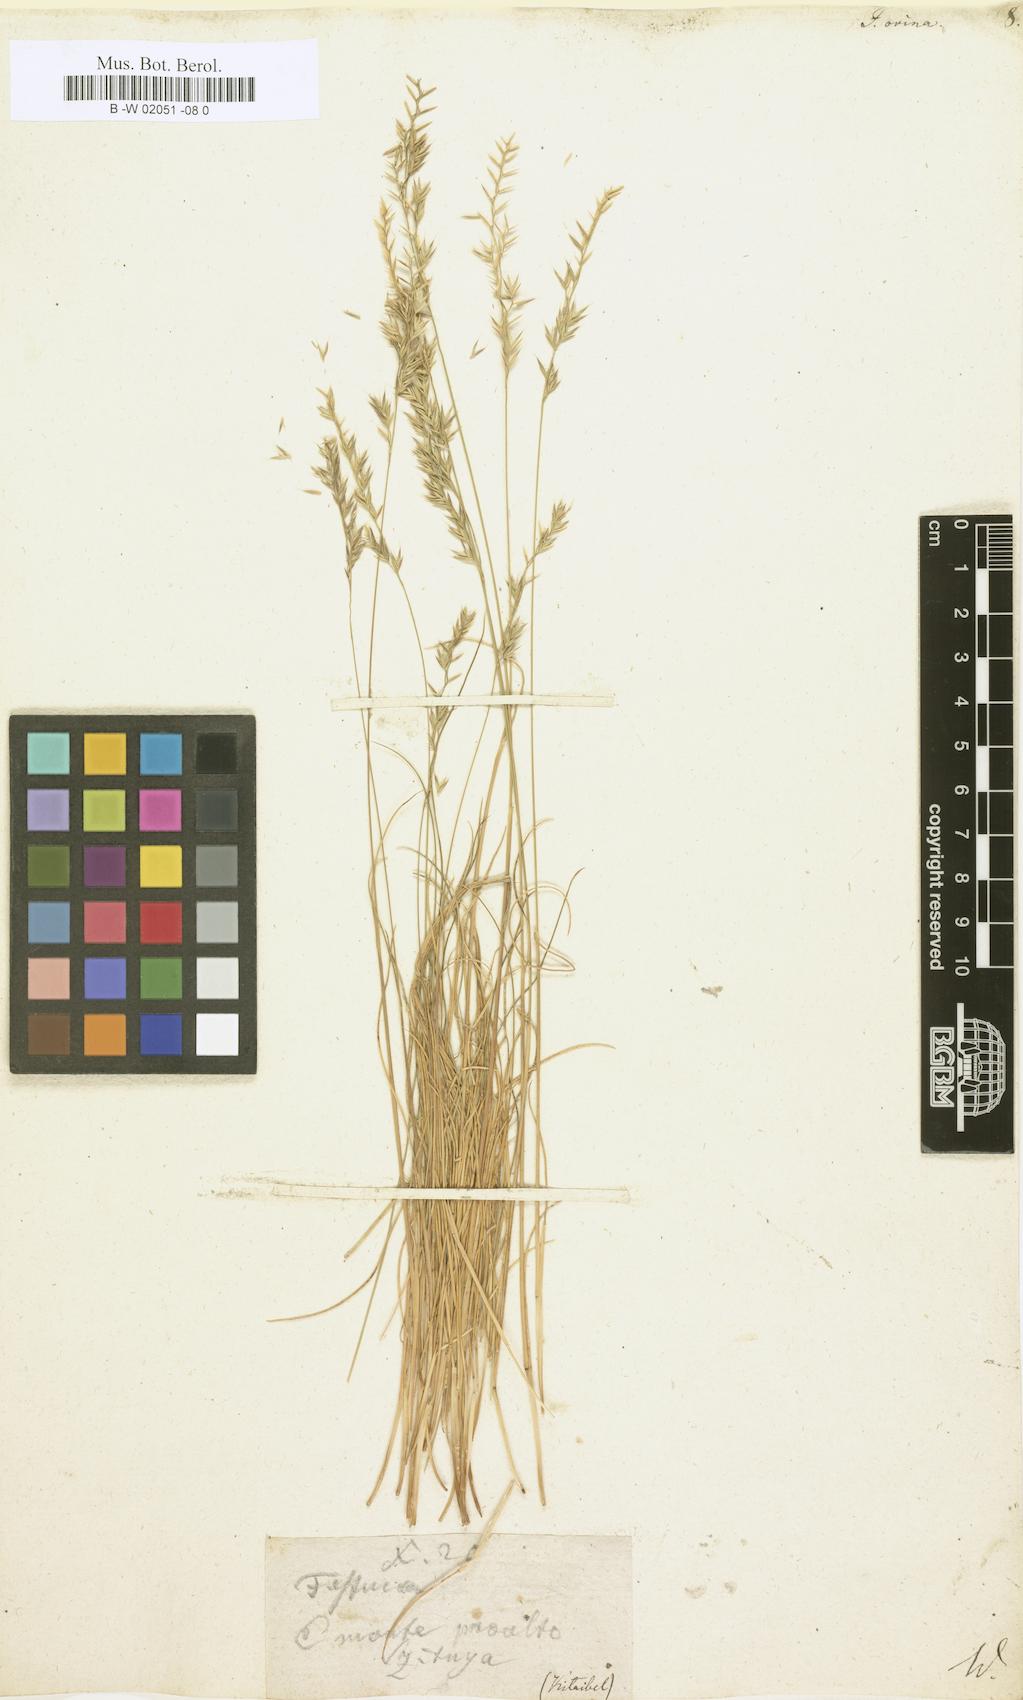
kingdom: Plantae
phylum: Tracheophyta
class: Liliopsida
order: Poales
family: Poaceae
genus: Festuca
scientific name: Festuca ovina
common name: Sheep fescue
